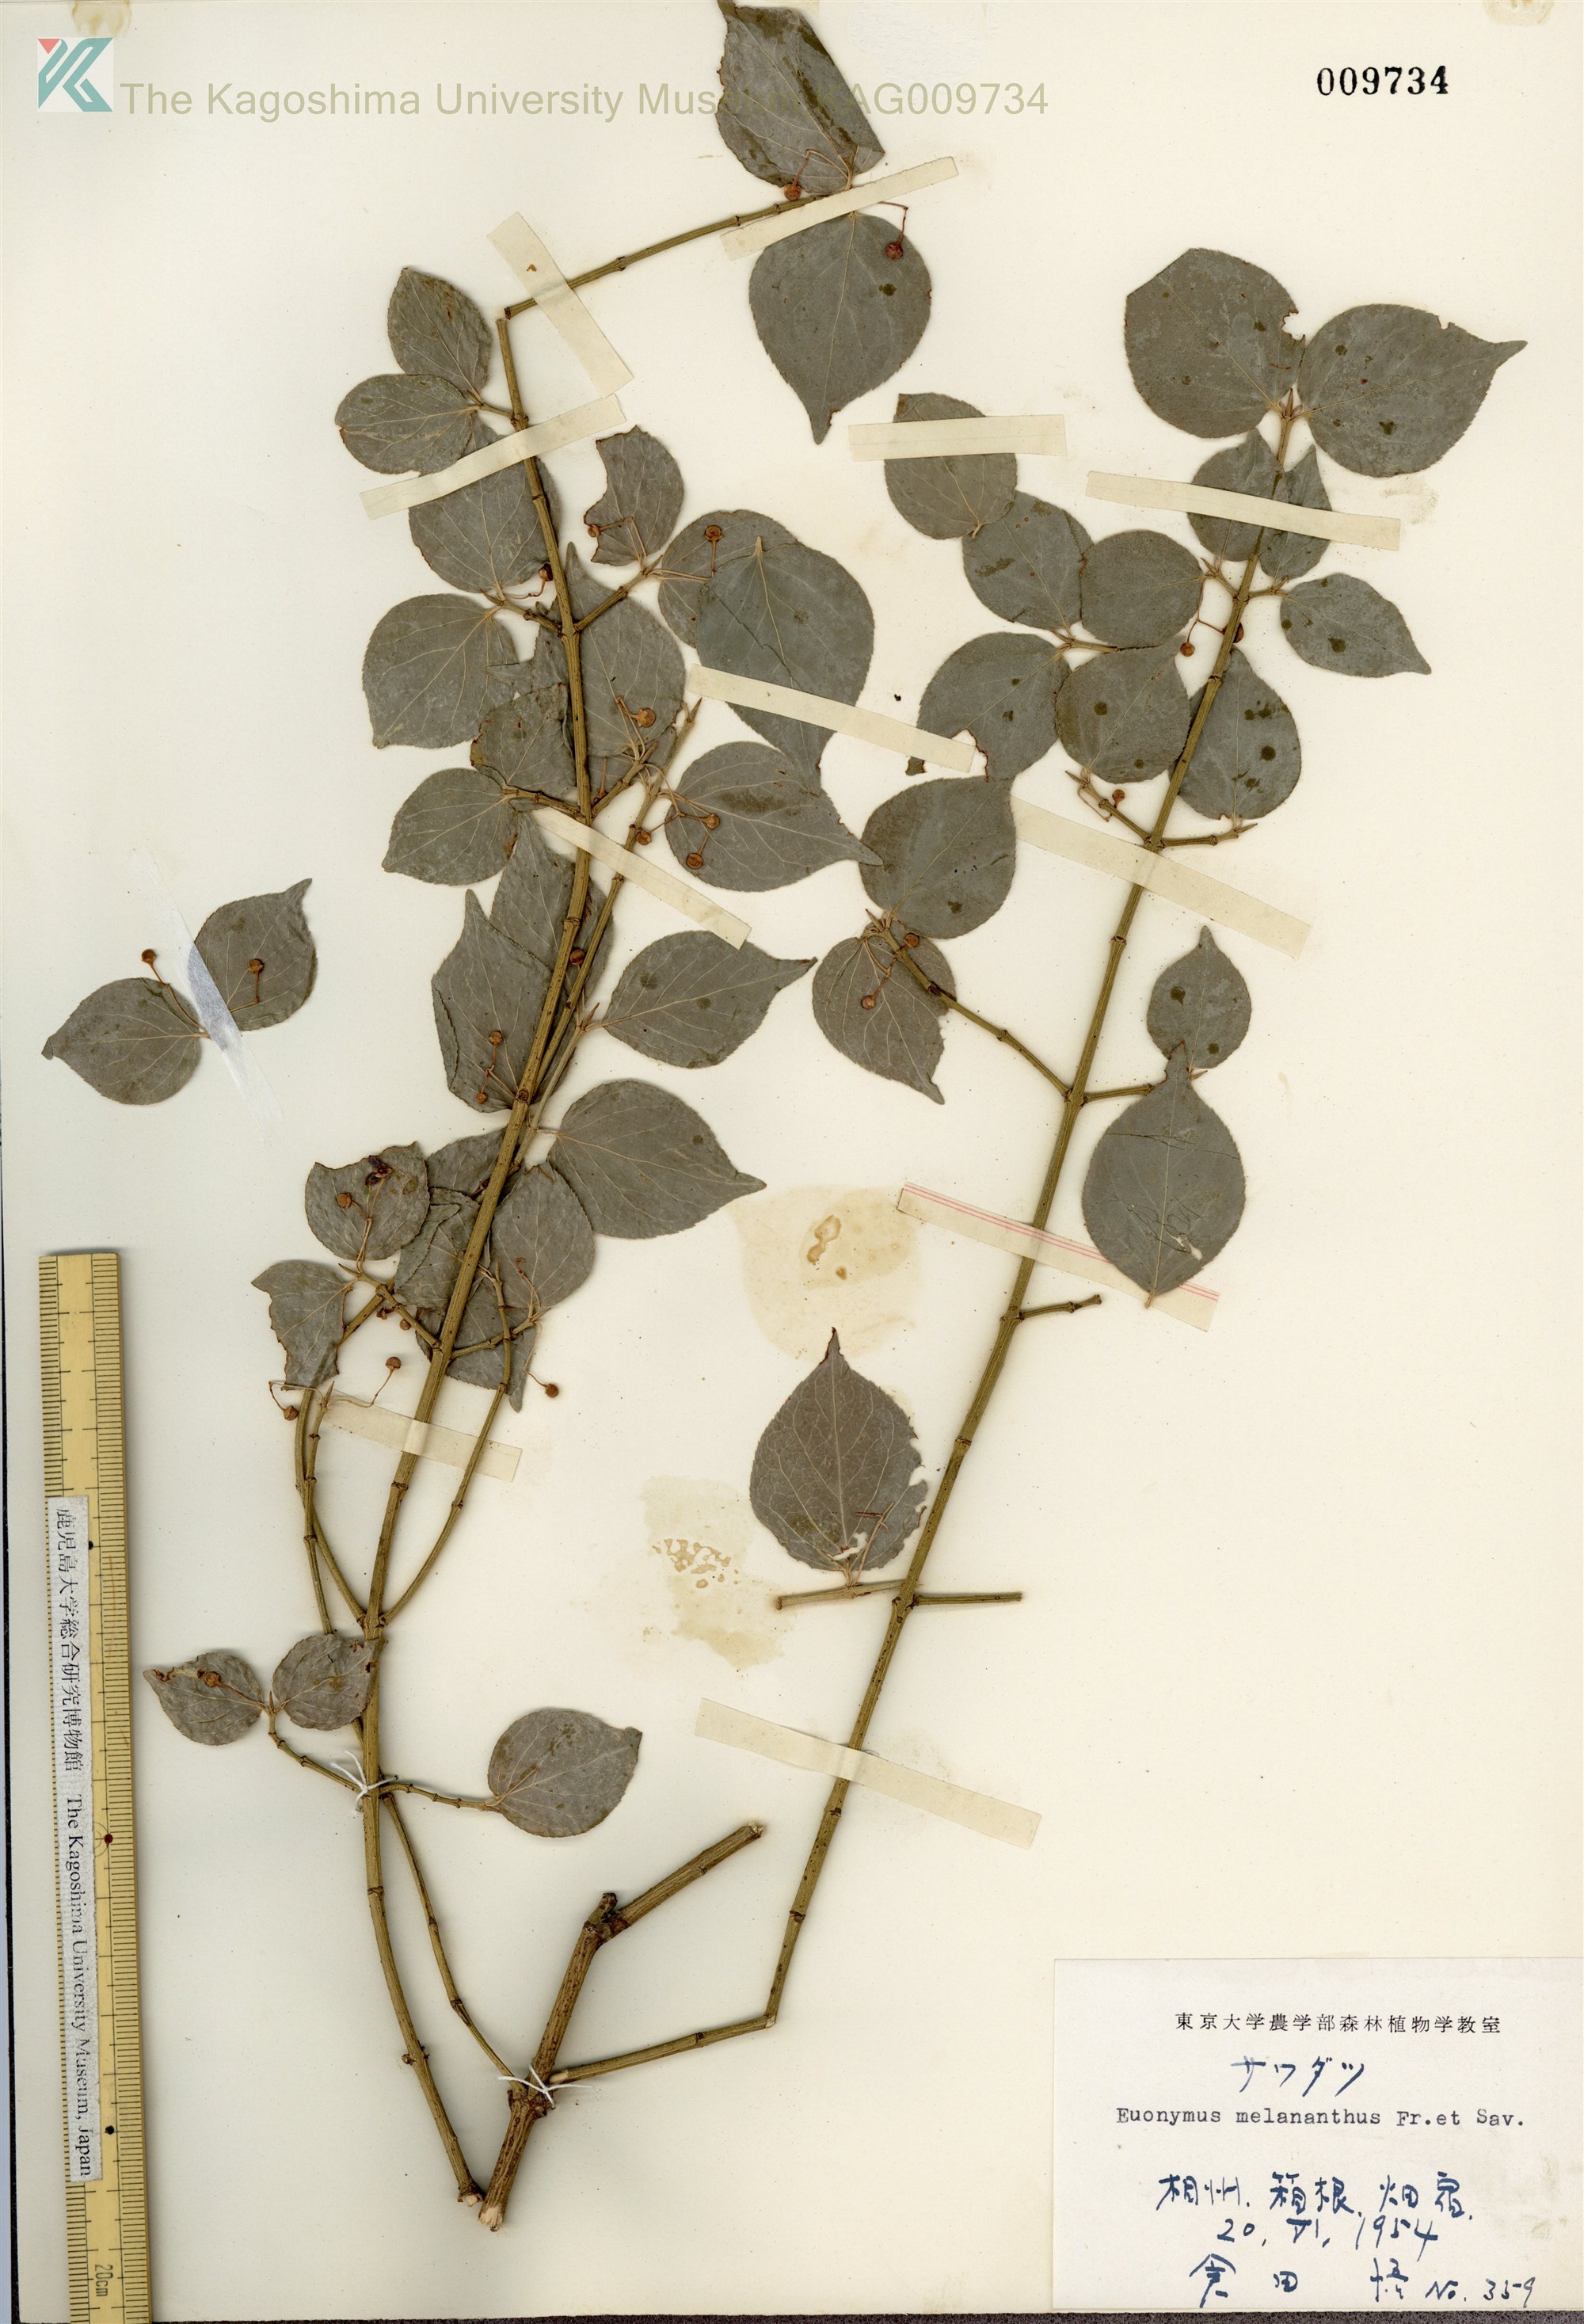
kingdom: Plantae
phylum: Tracheophyta
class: Magnoliopsida
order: Celastrales
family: Celastraceae
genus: Euonymus
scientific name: Euonymus melananthus
